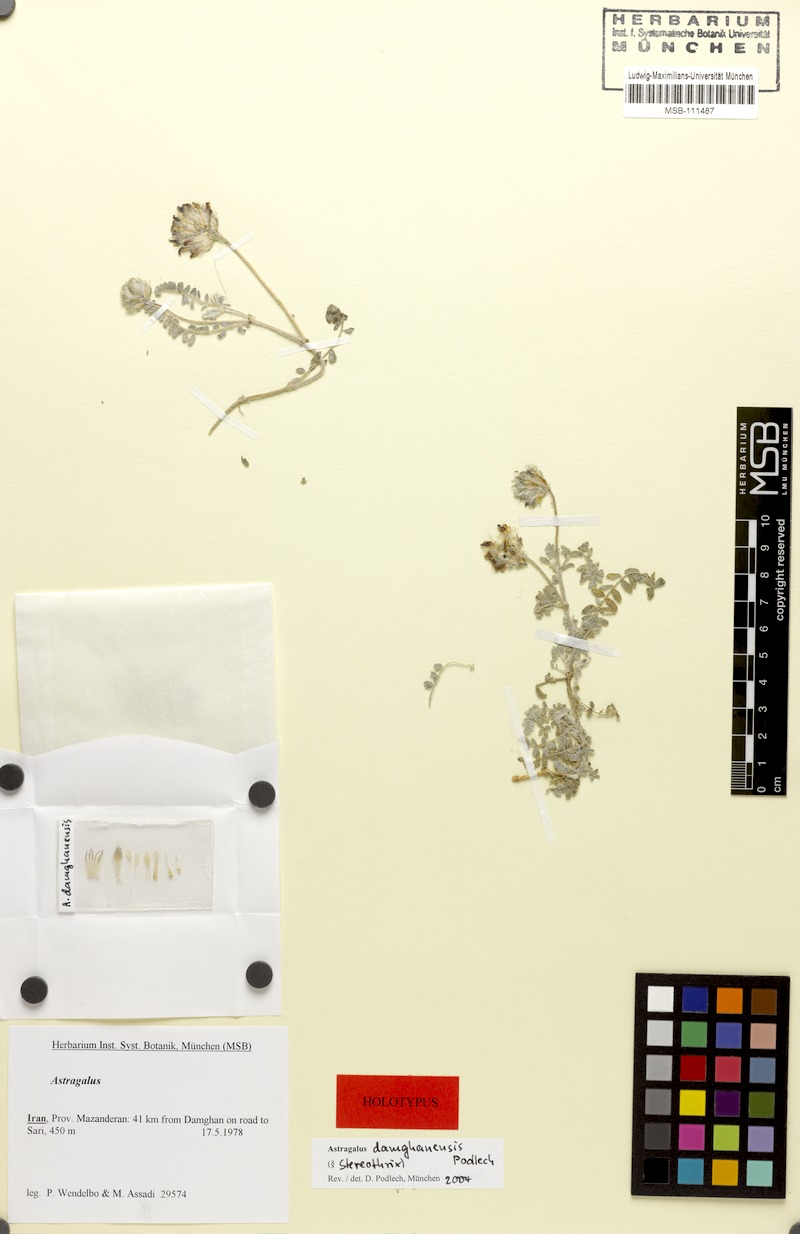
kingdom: Plantae
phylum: Tracheophyta
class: Magnoliopsida
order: Fabales
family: Fabaceae
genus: Astragalus
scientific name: Astragalus damghanensis
